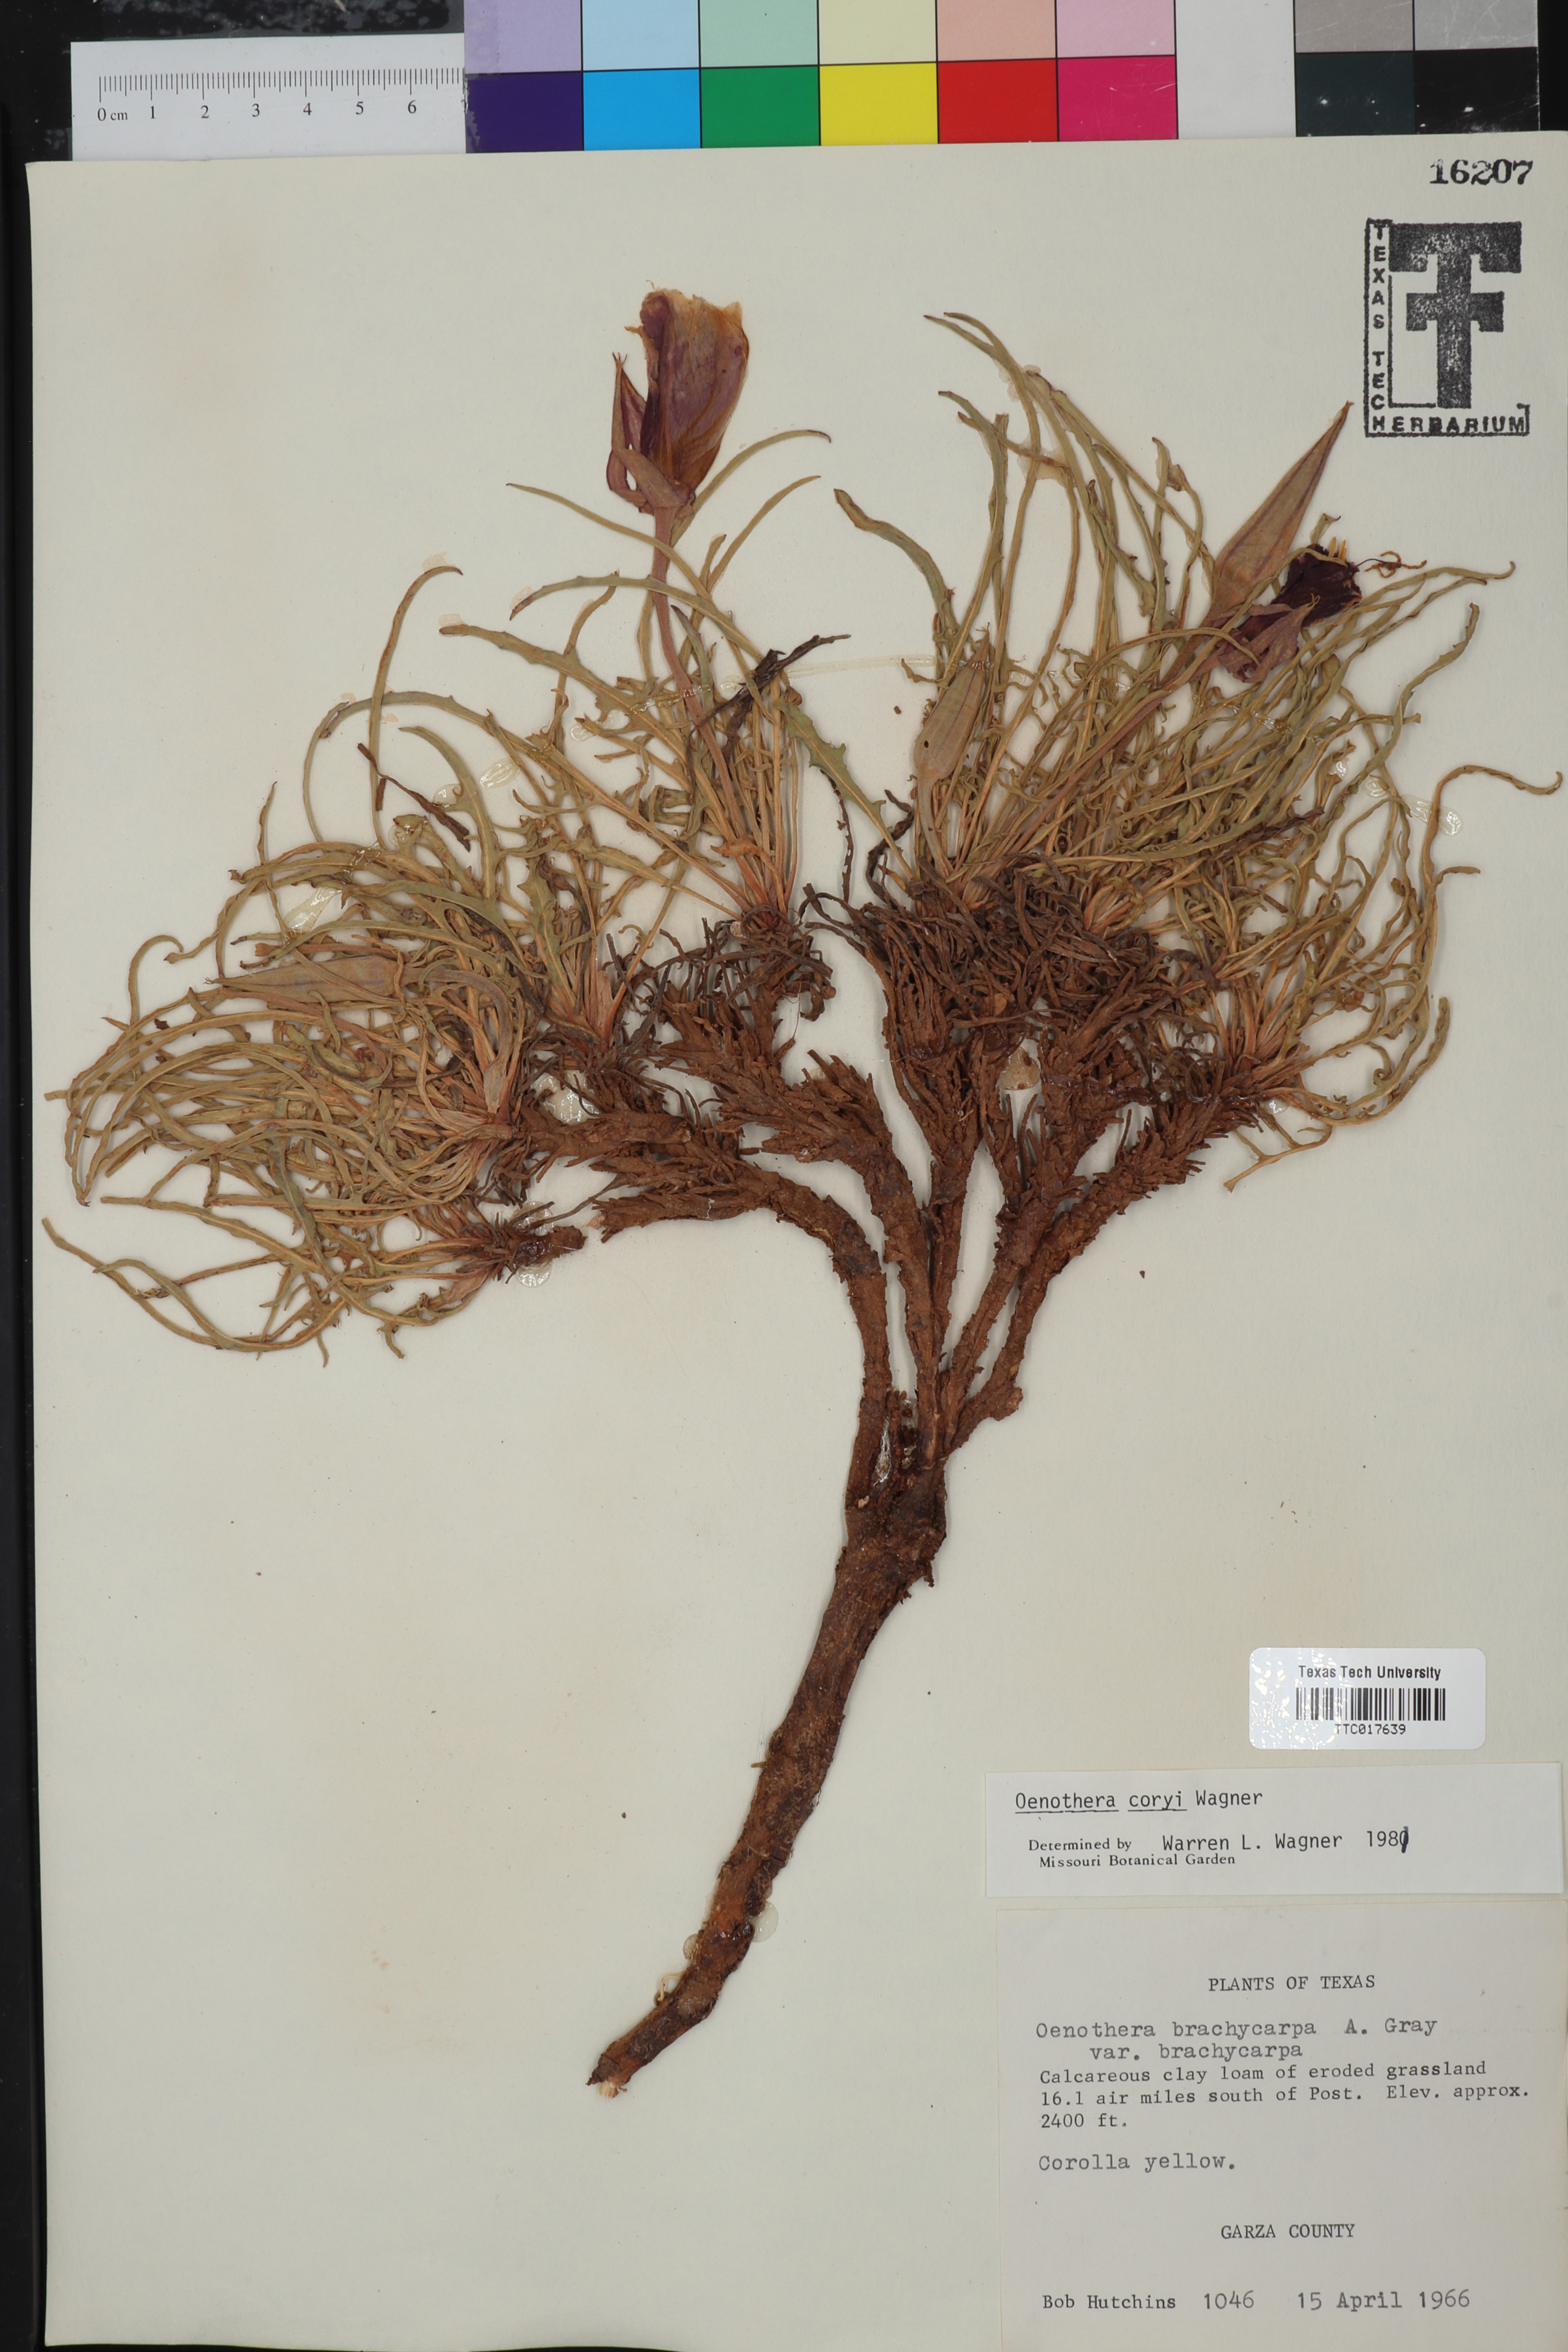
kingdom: Plantae
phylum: Tracheophyta
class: Magnoliopsida
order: Myrtales
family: Onagraceae
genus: Oenothera
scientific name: Oenothera coryi
